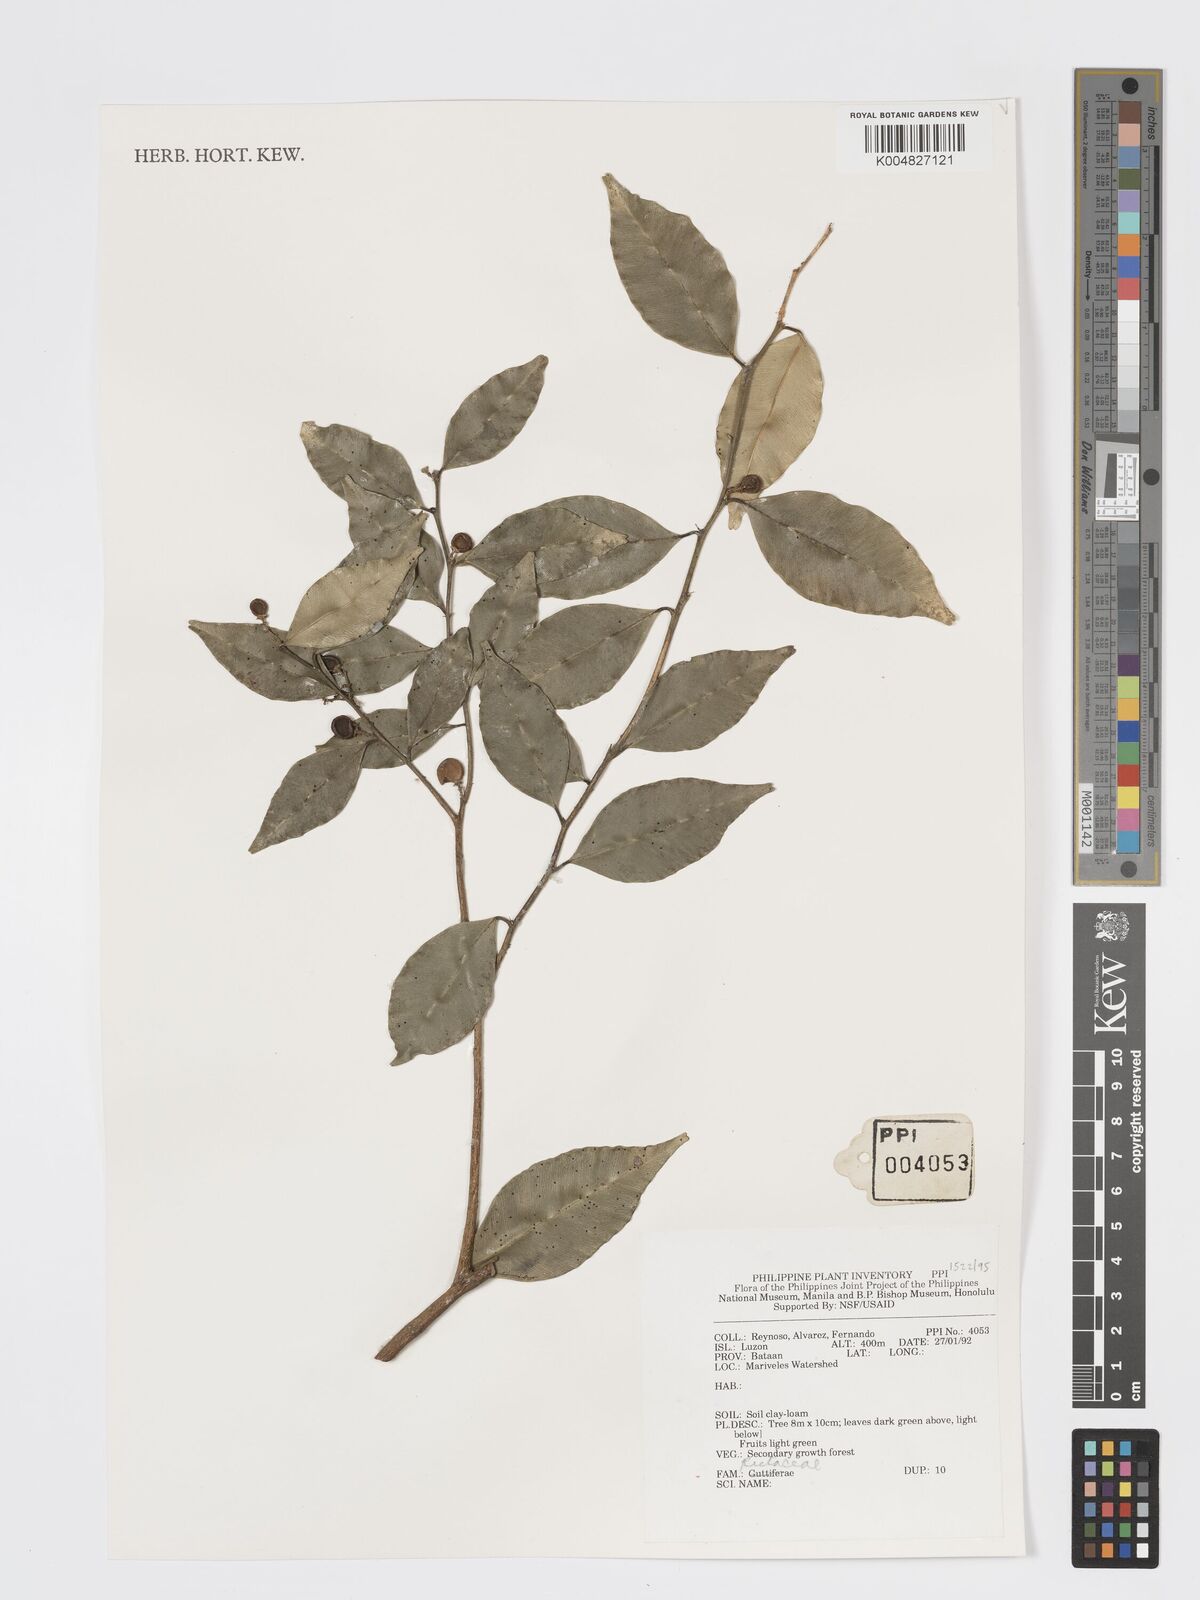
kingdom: Plantae
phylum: Tracheophyta
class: Magnoliopsida
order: Sapindales
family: Rutaceae
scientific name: Rutaceae
